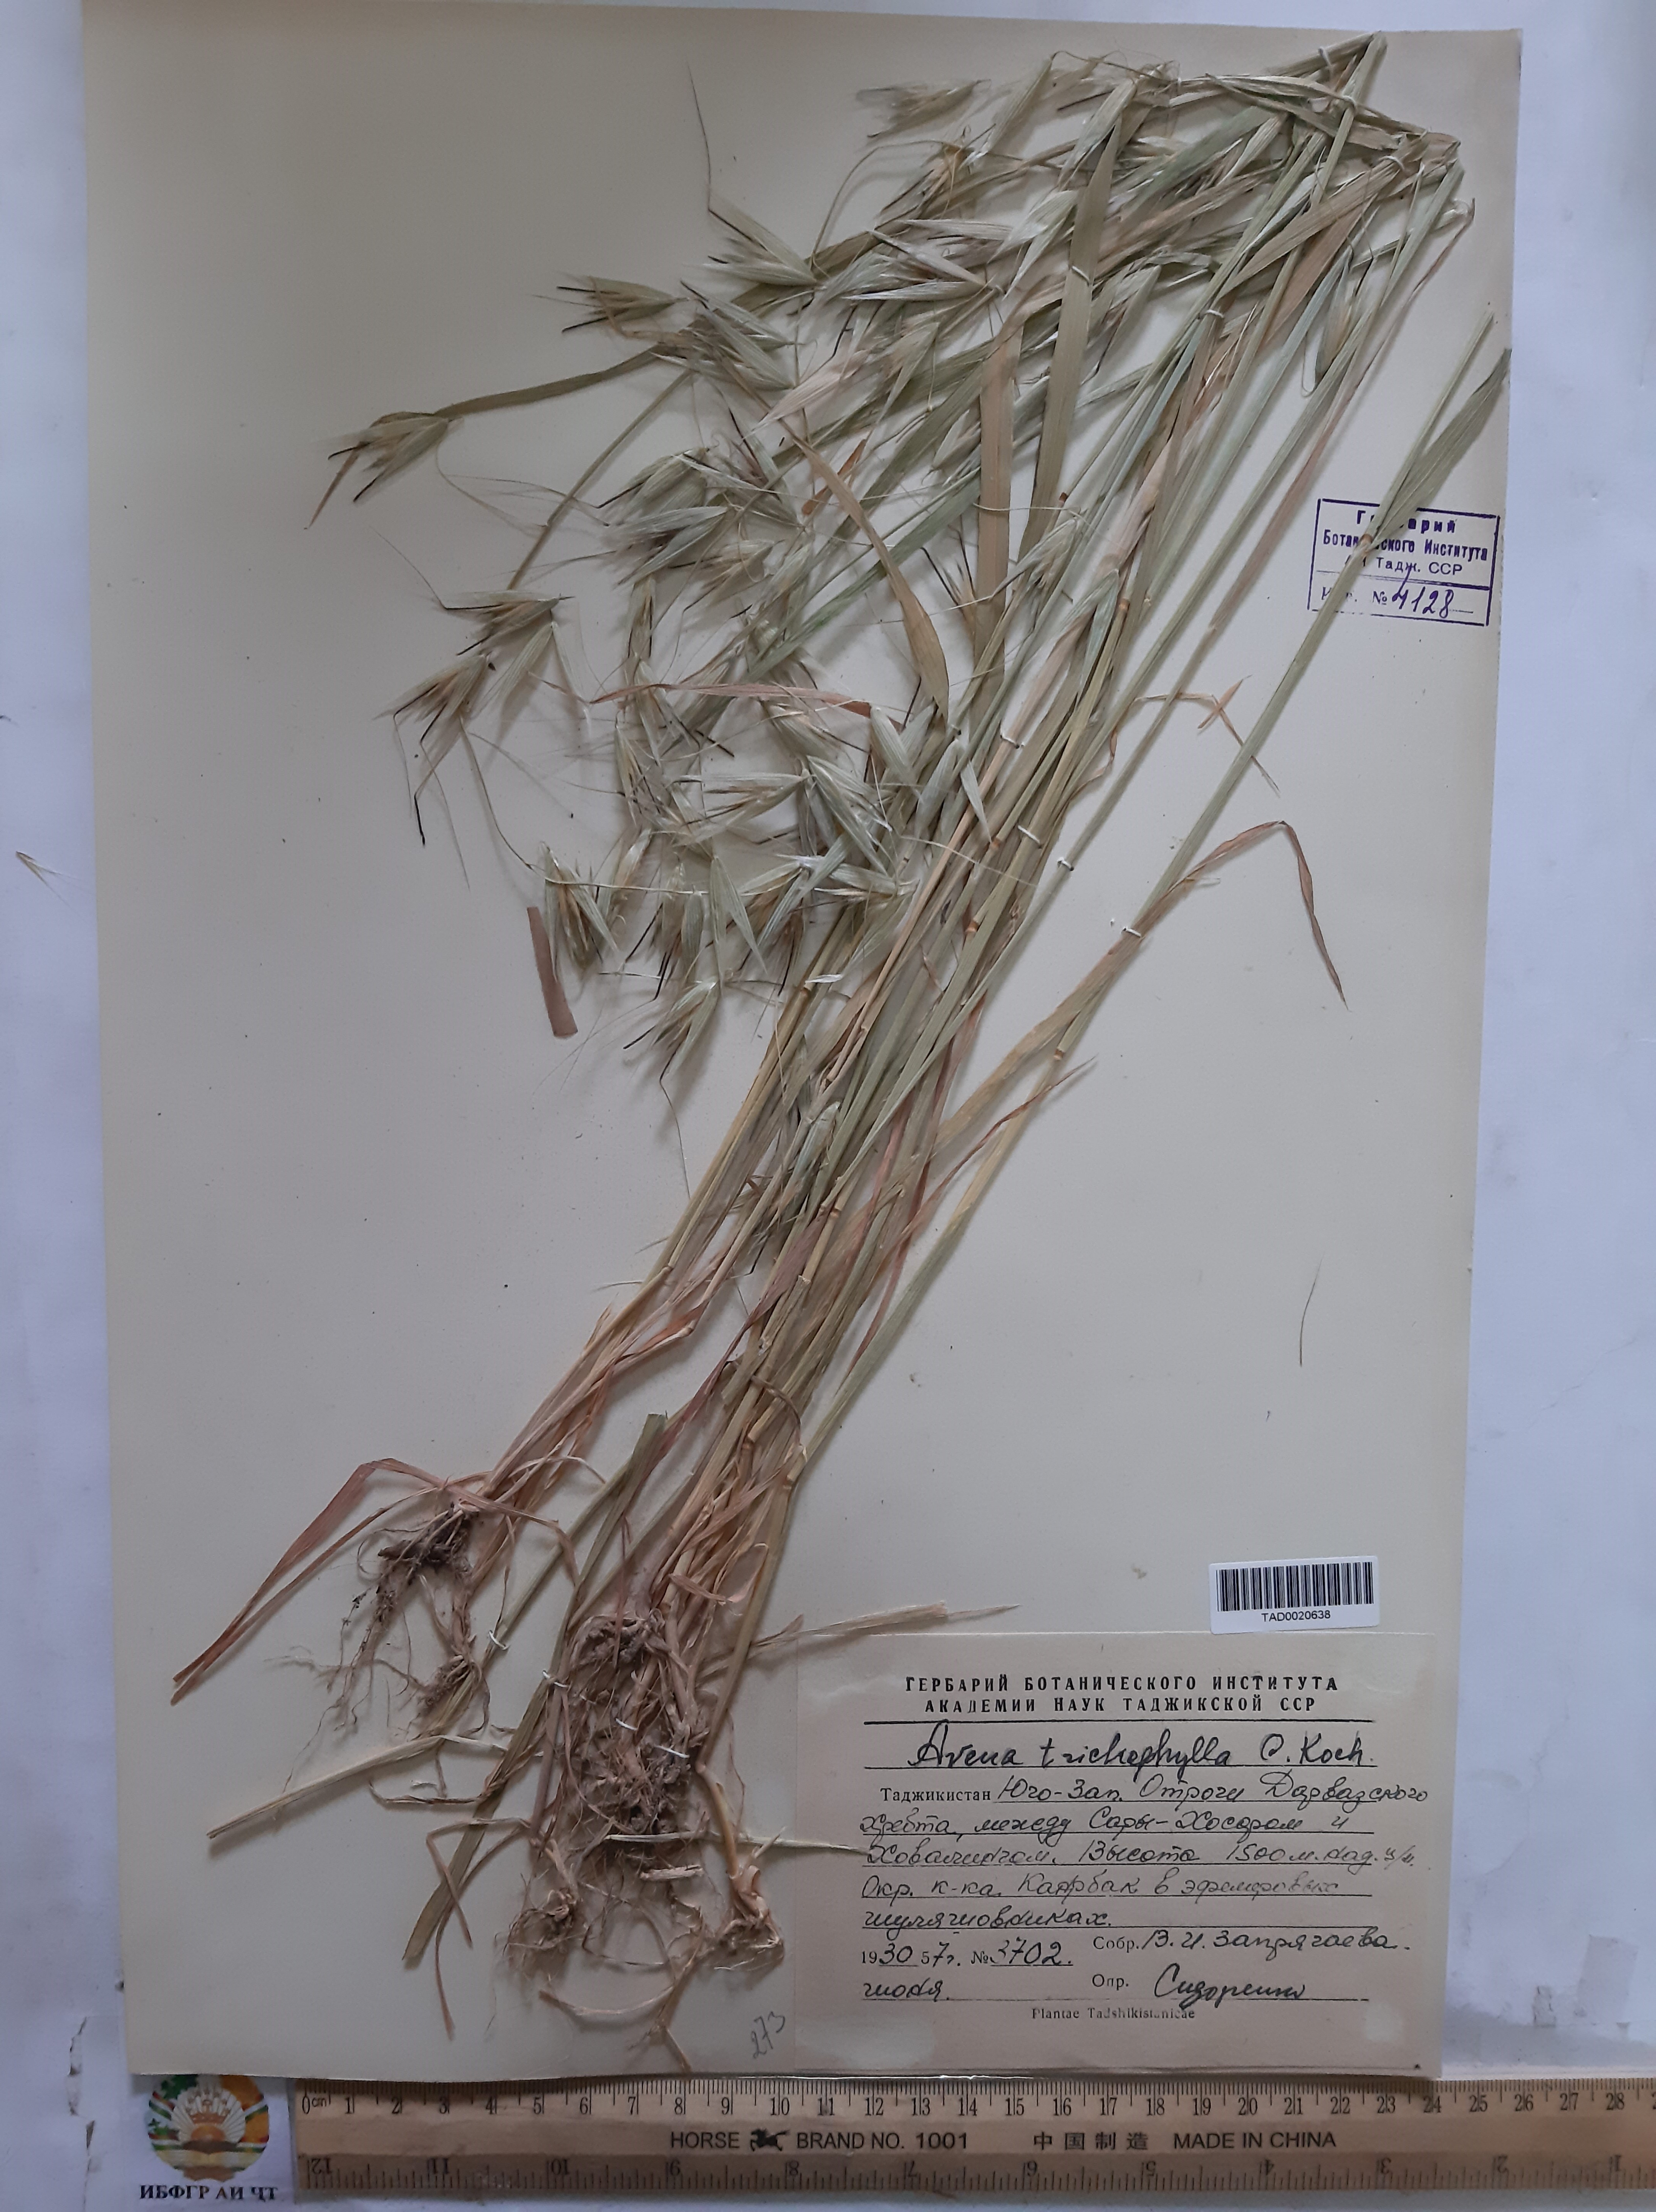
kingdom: Plantae
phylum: Tracheophyta
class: Liliopsida
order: Poales
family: Poaceae
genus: Avena
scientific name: Avena sterilis
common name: Animated oat
